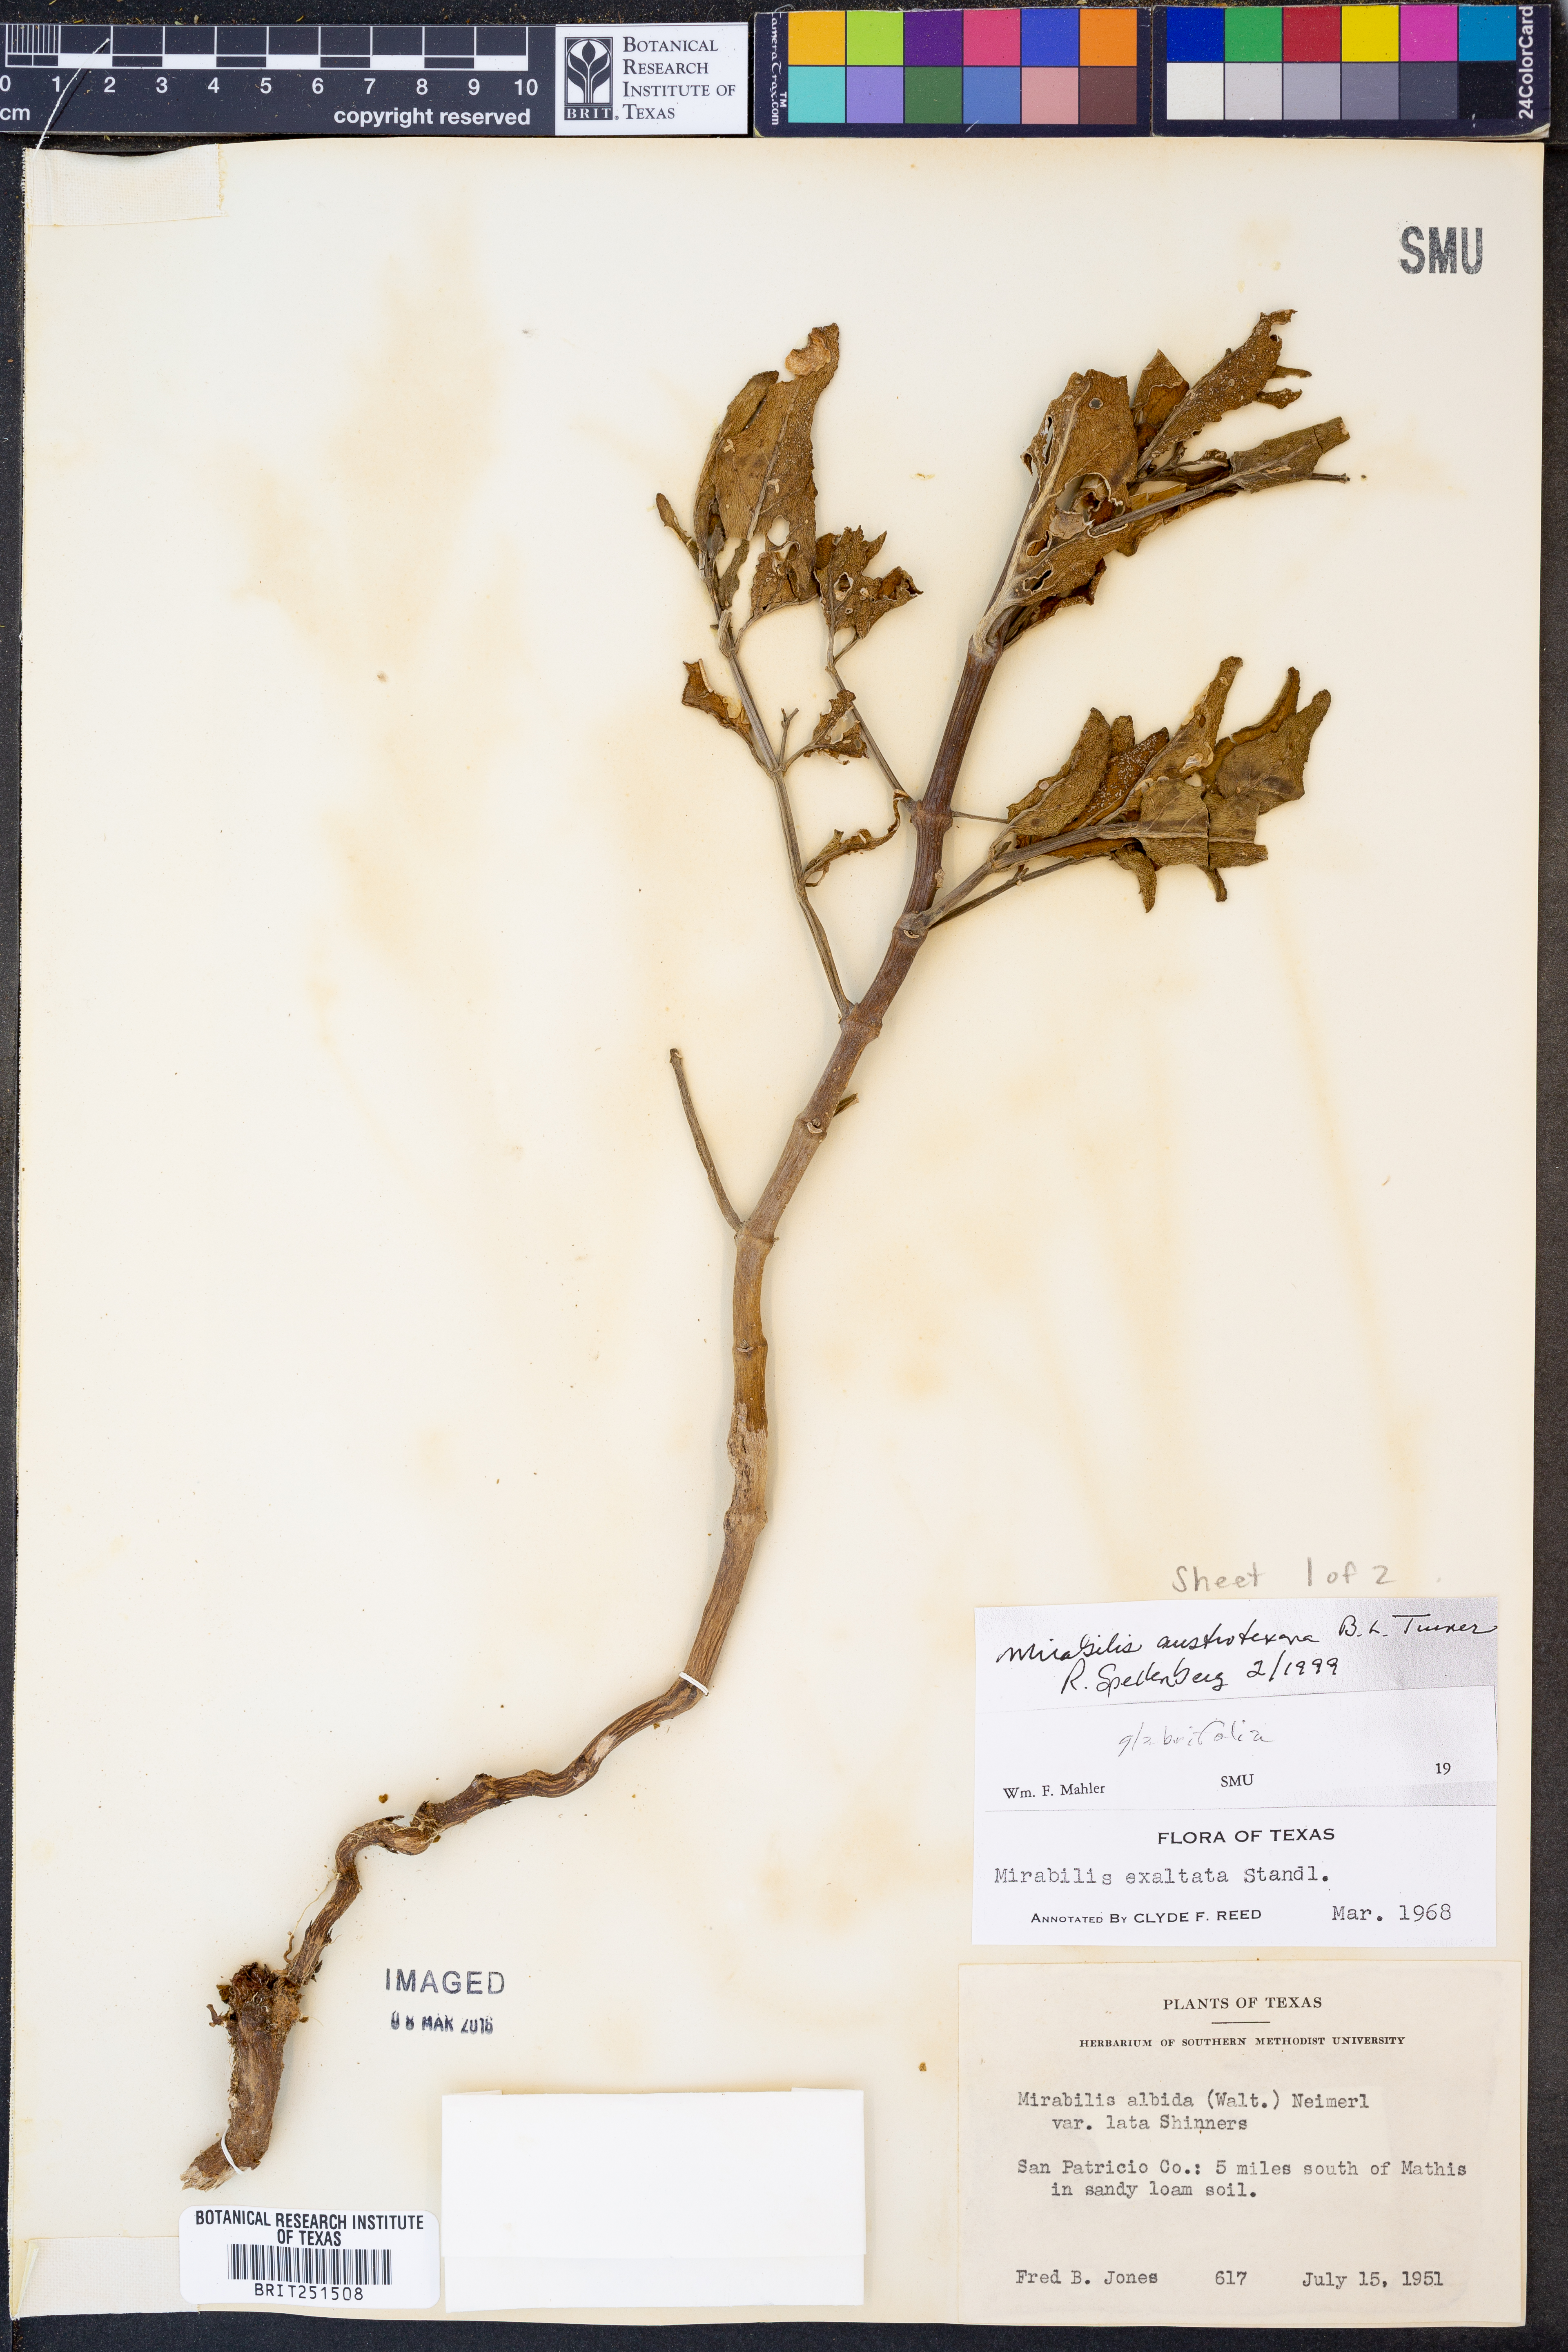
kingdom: Plantae
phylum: Tracheophyta
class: Magnoliopsida
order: Caryophyllales
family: Nyctaginaceae
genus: Mirabilis
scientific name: Mirabilis austrotexana
